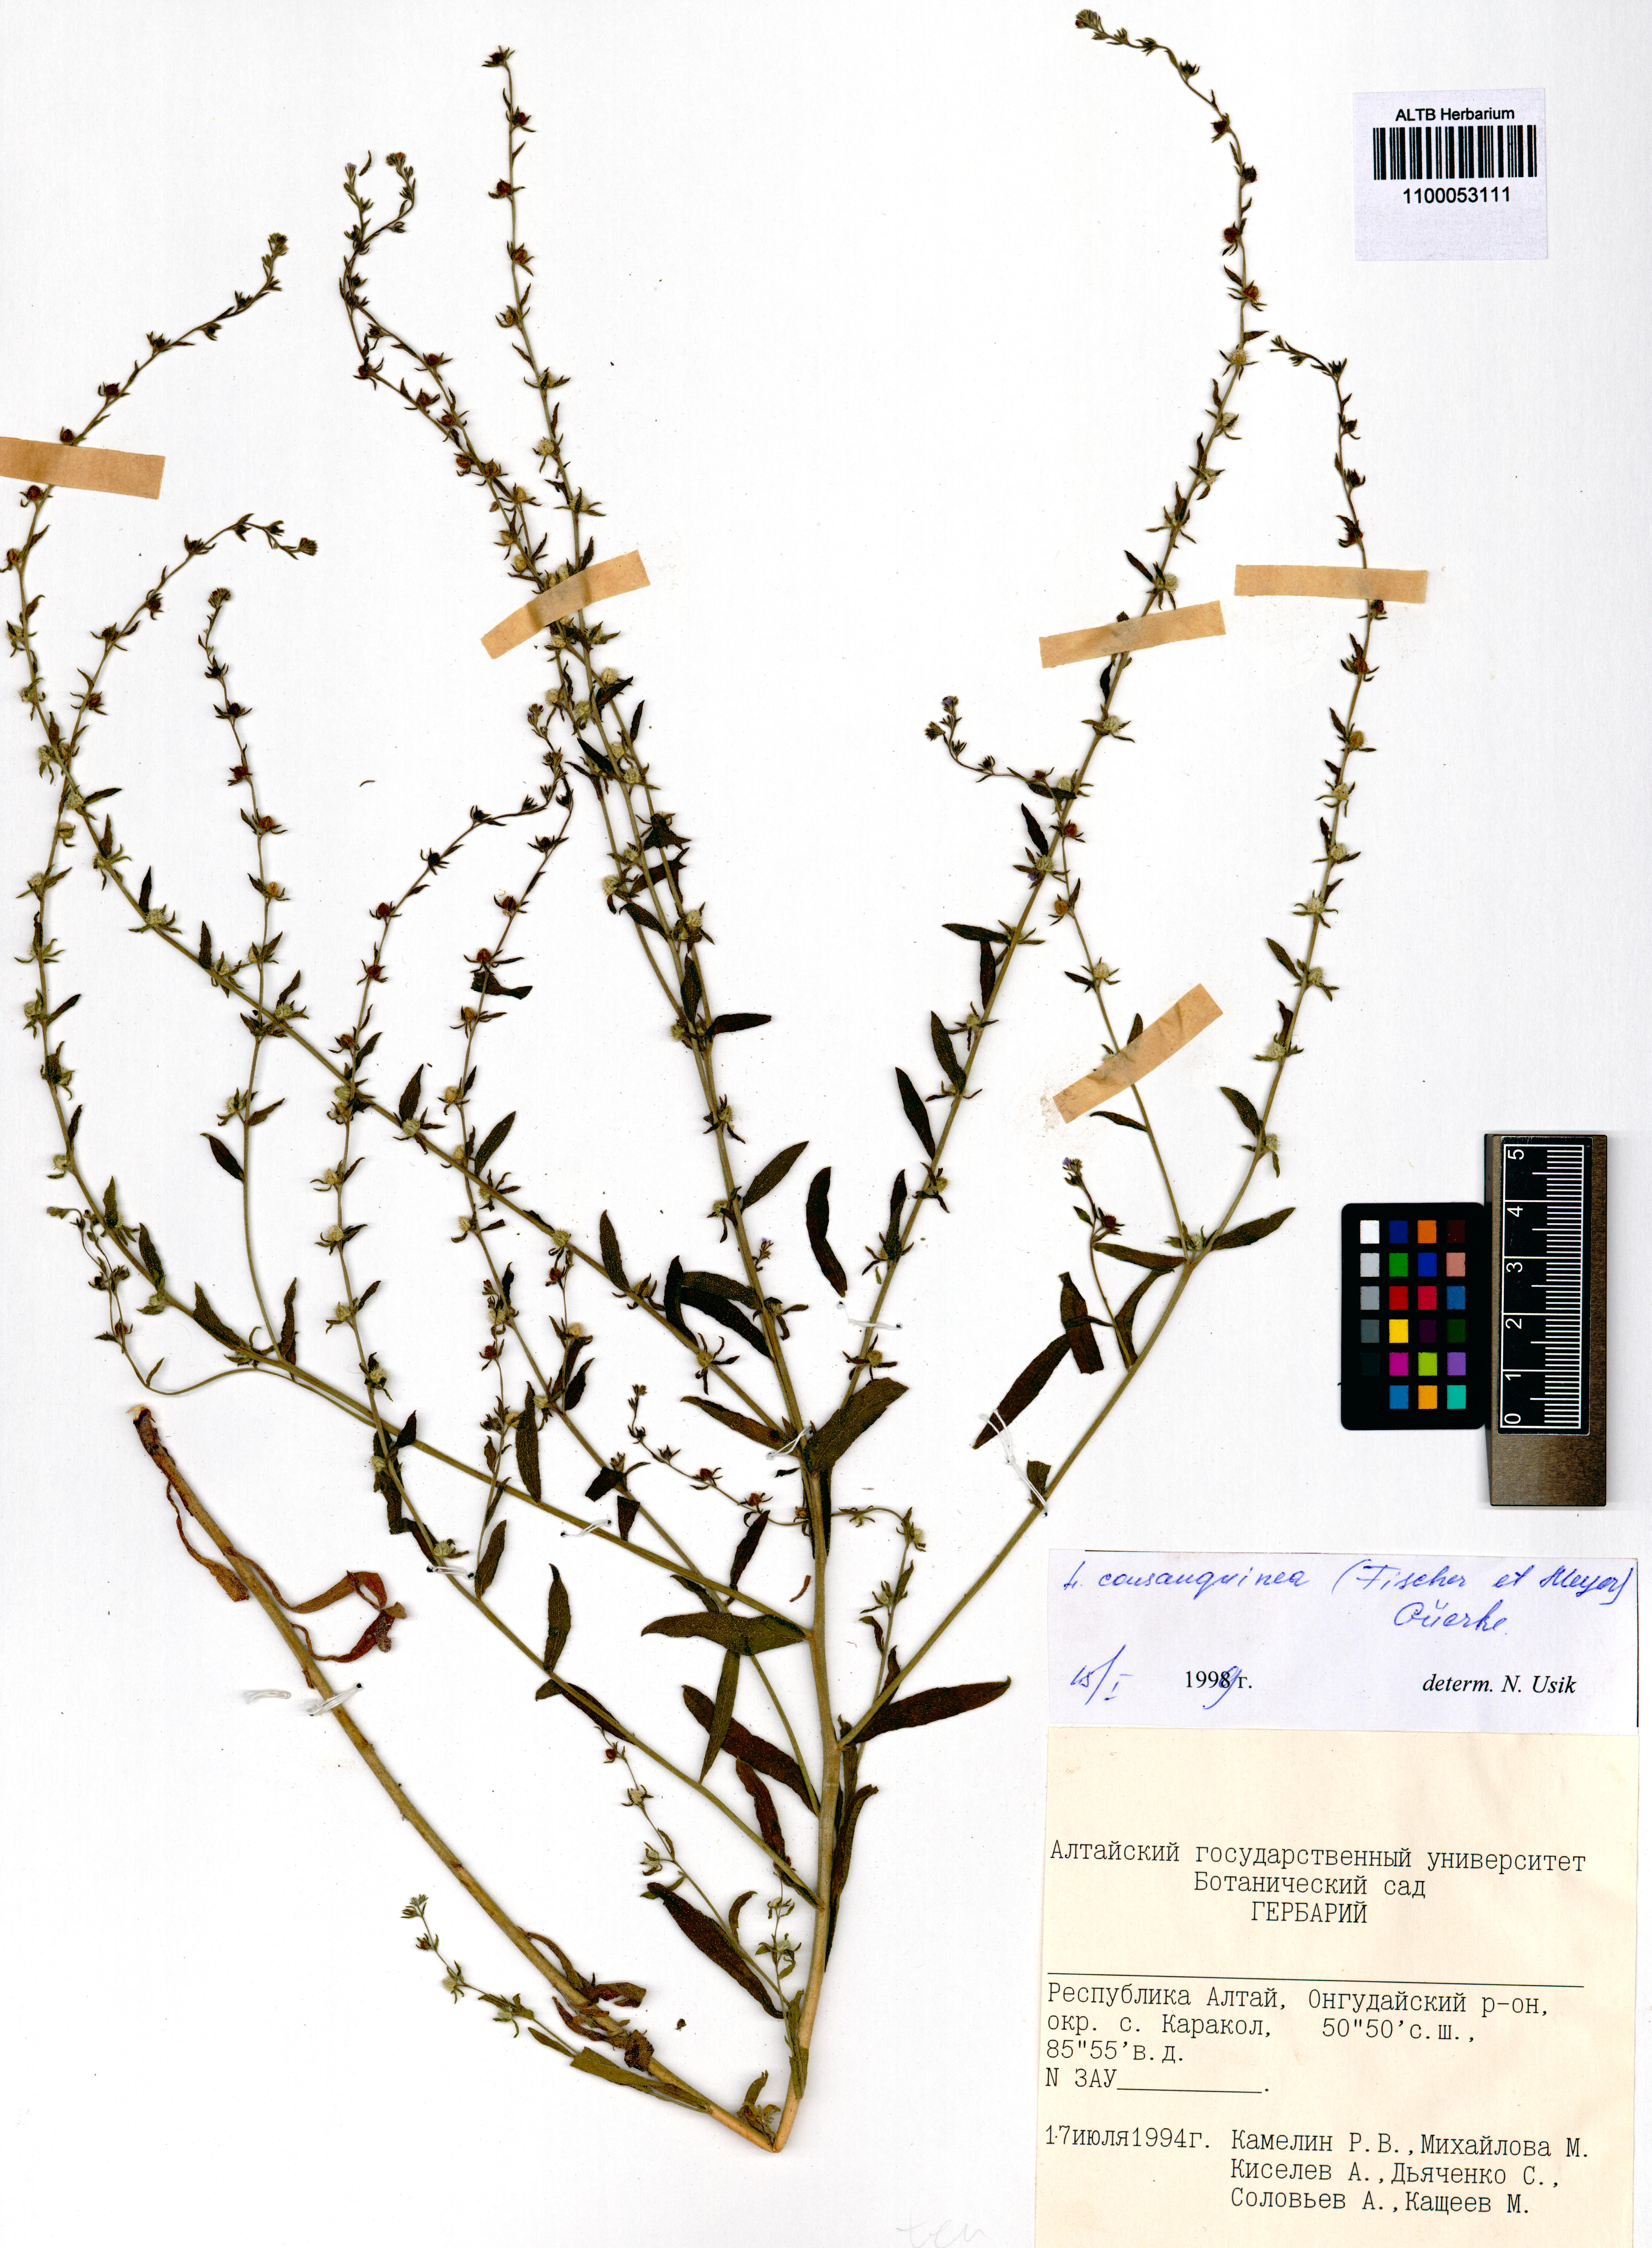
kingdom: Plantae
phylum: Tracheophyta
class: Magnoliopsida
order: Boraginales
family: Boraginaceae
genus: Lappula
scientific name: Lappula squarrosa
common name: European stickseed
